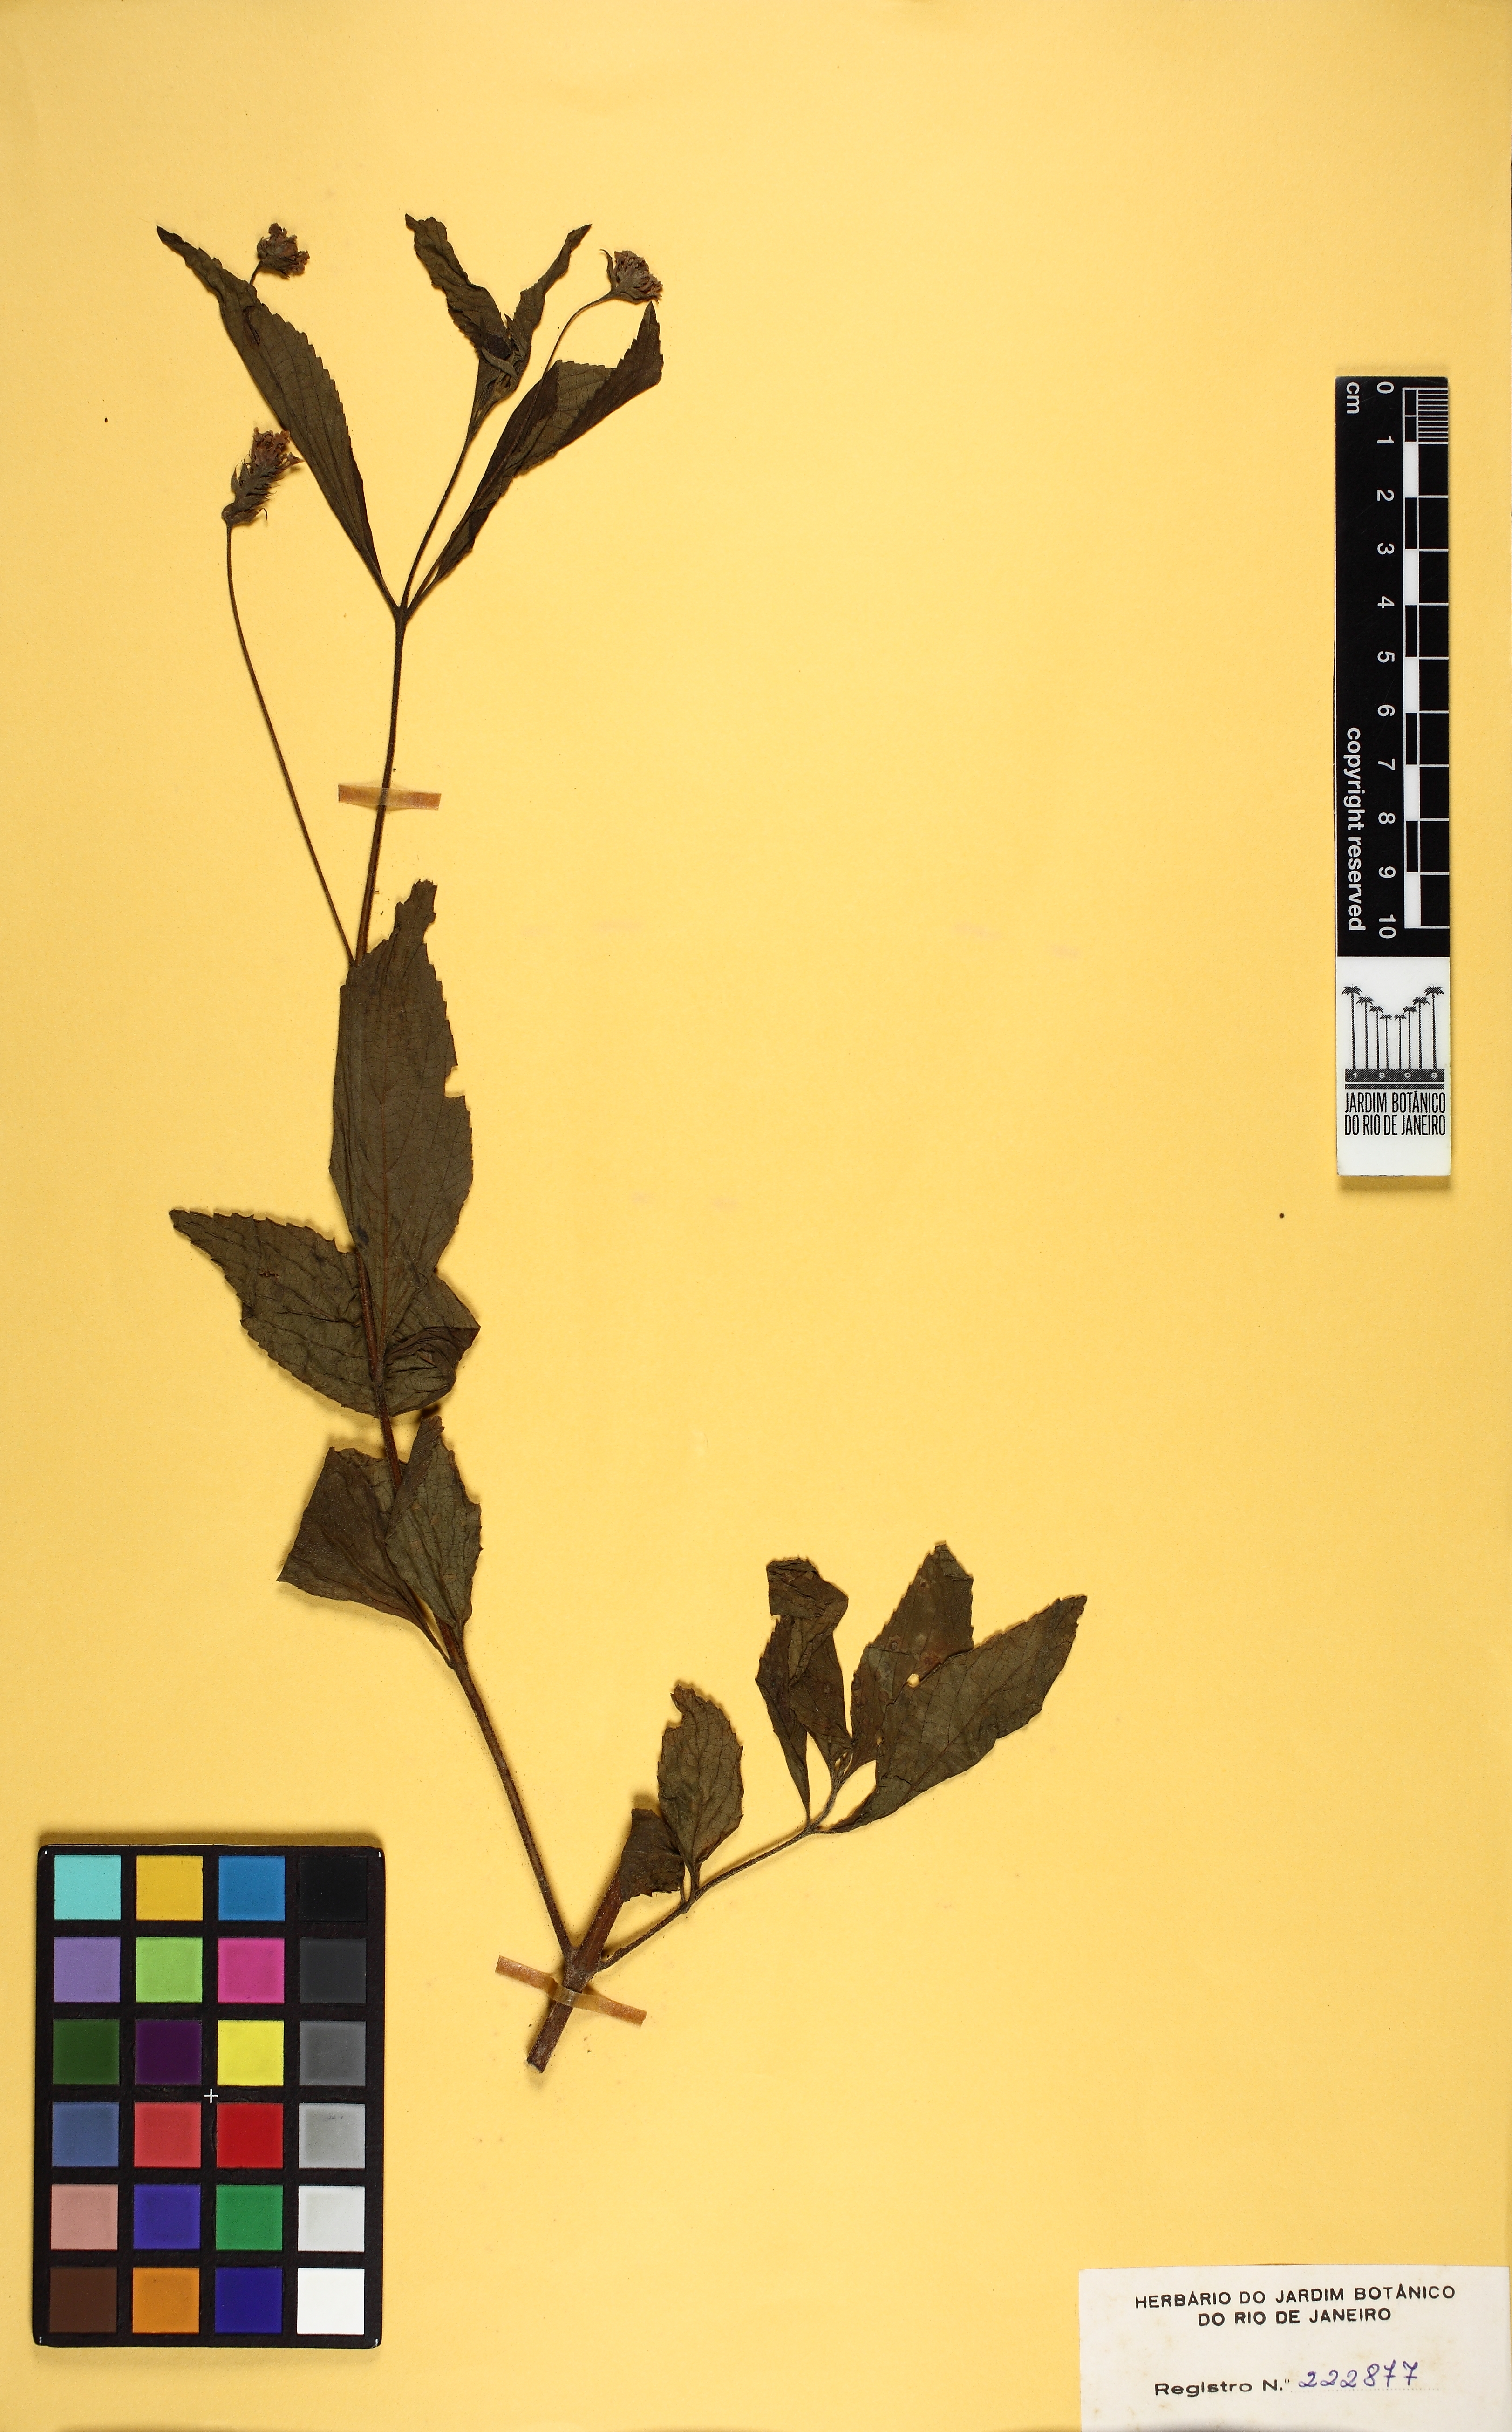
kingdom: Plantae
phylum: Tracheophyta
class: Magnoliopsida
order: Lamiales
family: Verbenaceae
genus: Lantana
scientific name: Lantana trifolia
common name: Sweet-sage
